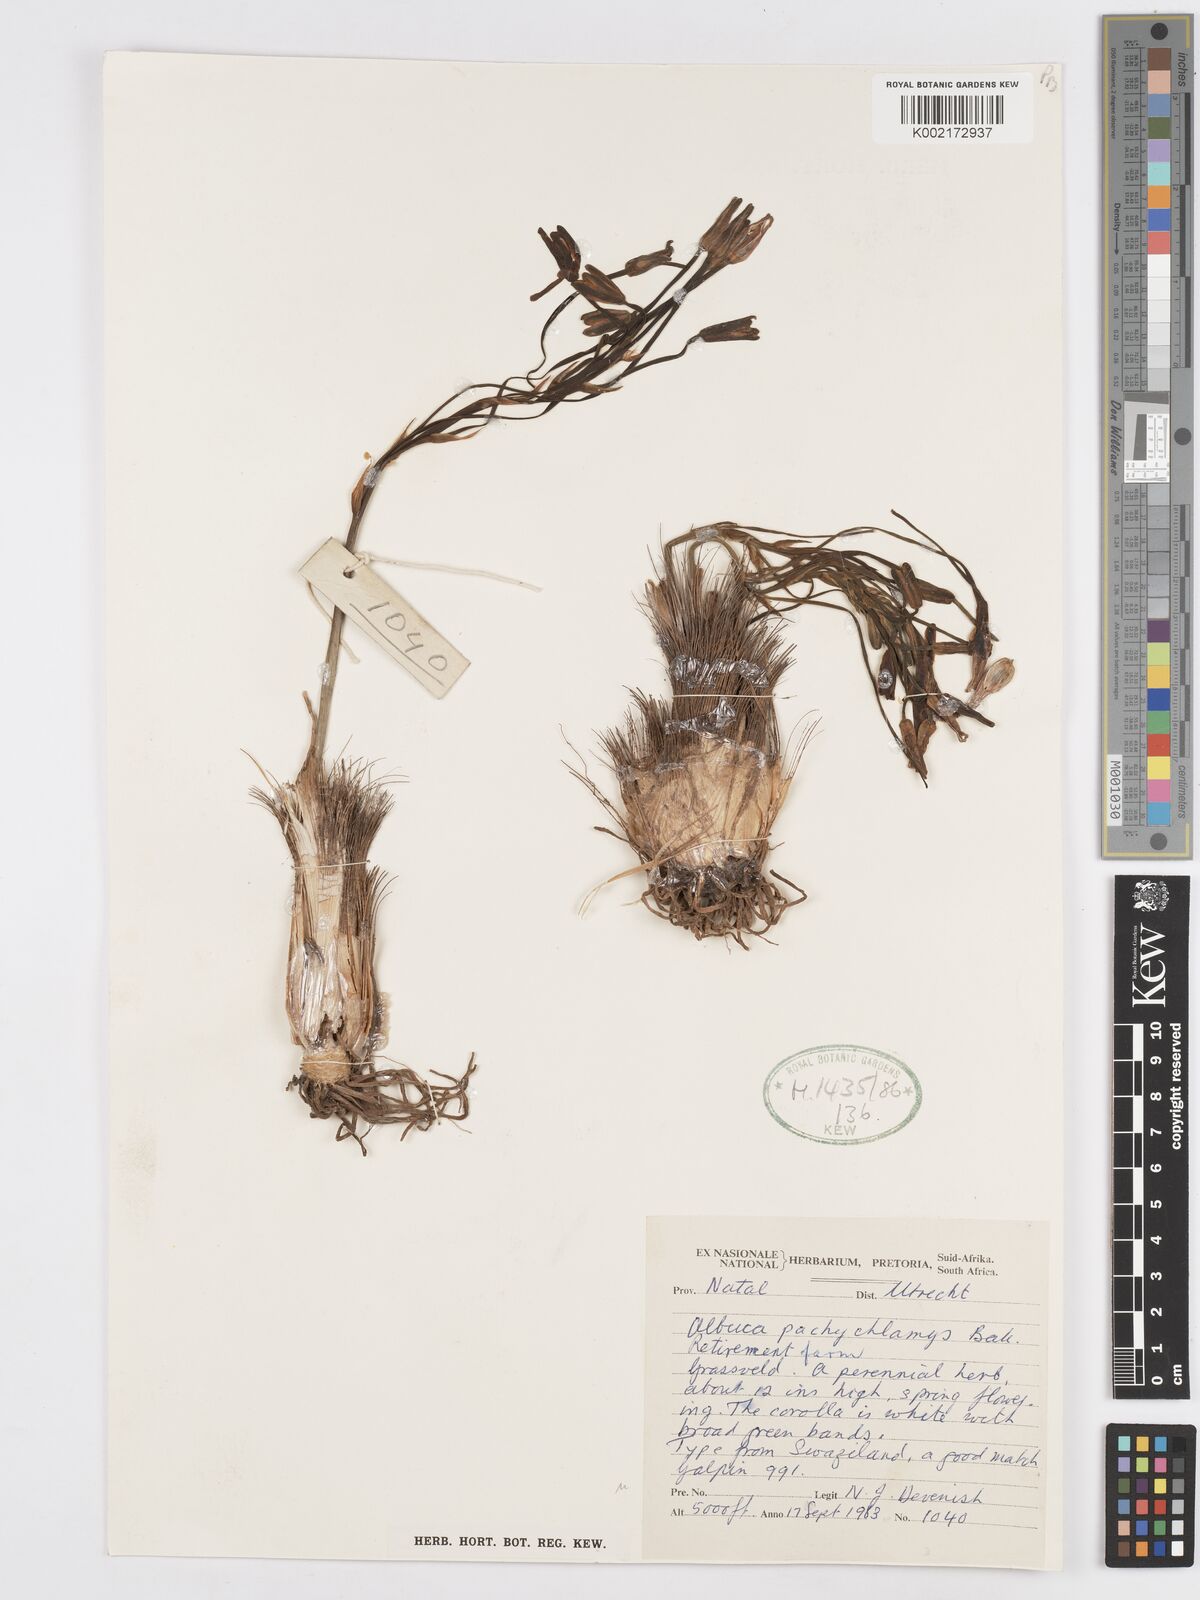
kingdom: Plantae
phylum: Tracheophyta
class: Liliopsida
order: Asparagales
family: Asparagaceae
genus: Albuca
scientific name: Albuca setosa
